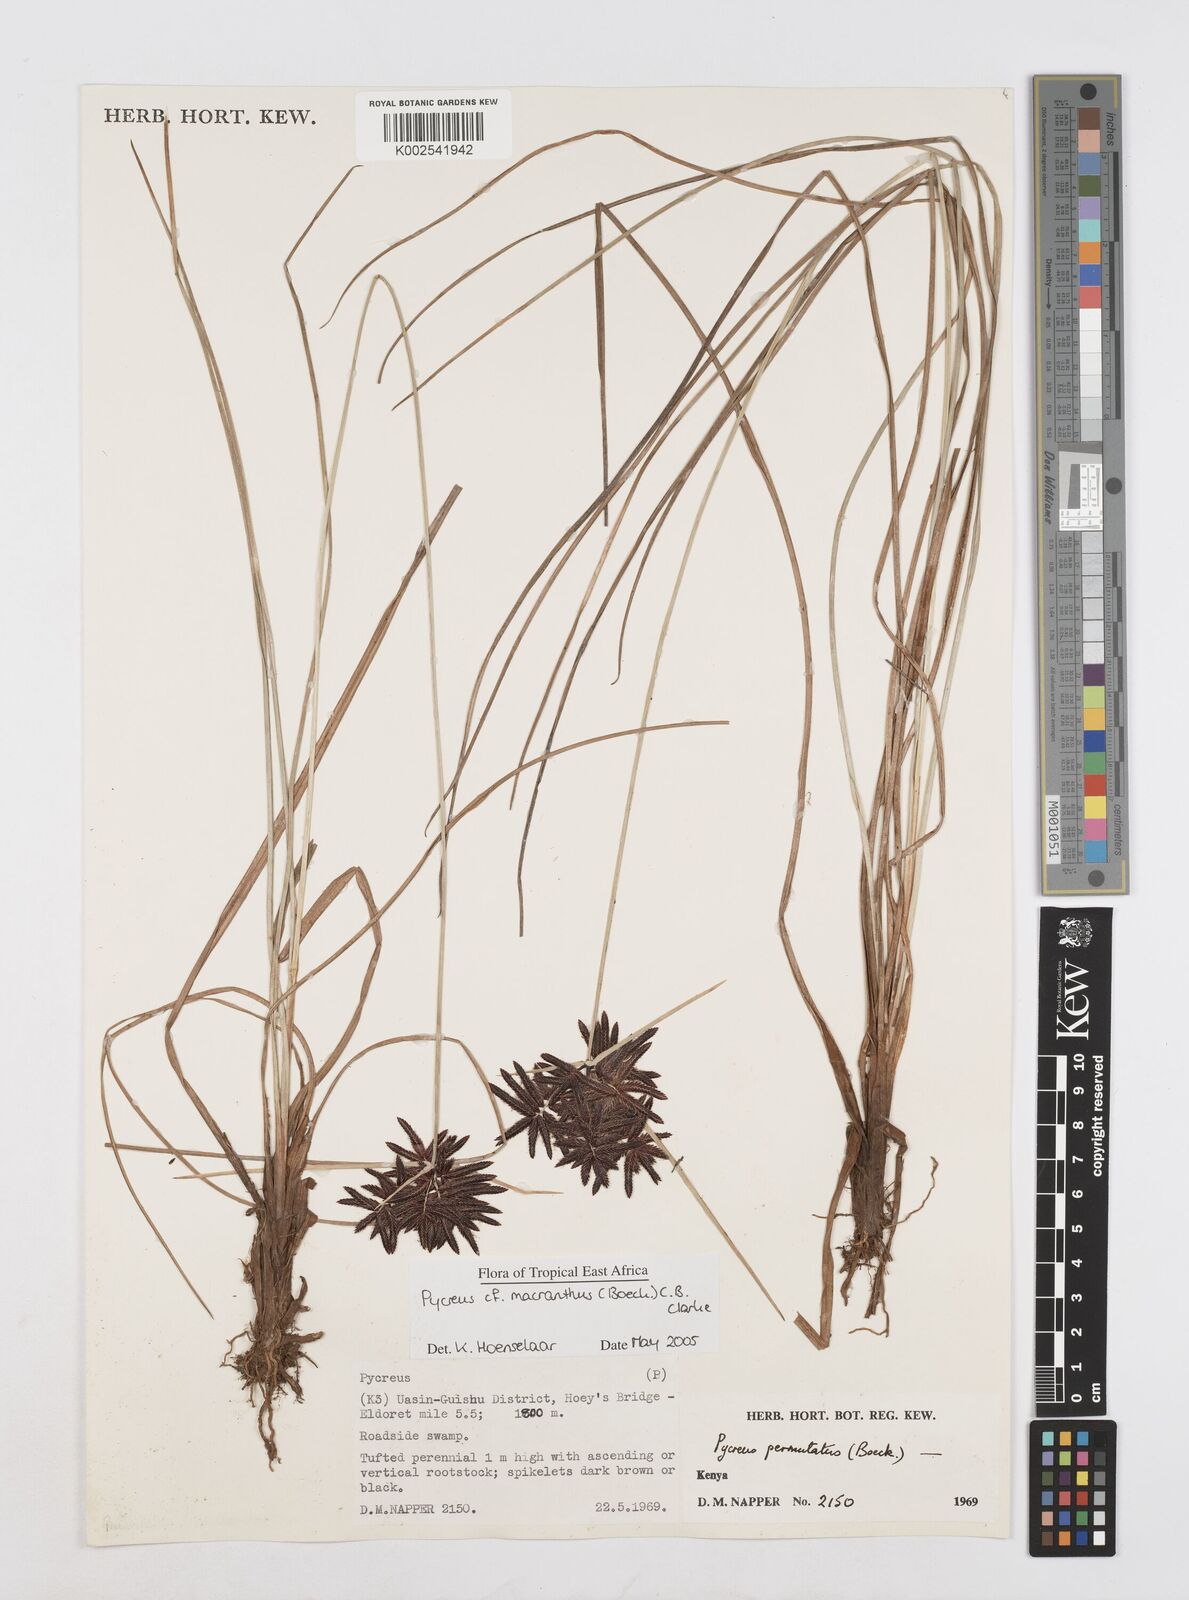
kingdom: Plantae
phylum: Tracheophyta
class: Liliopsida
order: Poales
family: Cyperaceae
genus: Cyperus
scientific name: Cyperus
